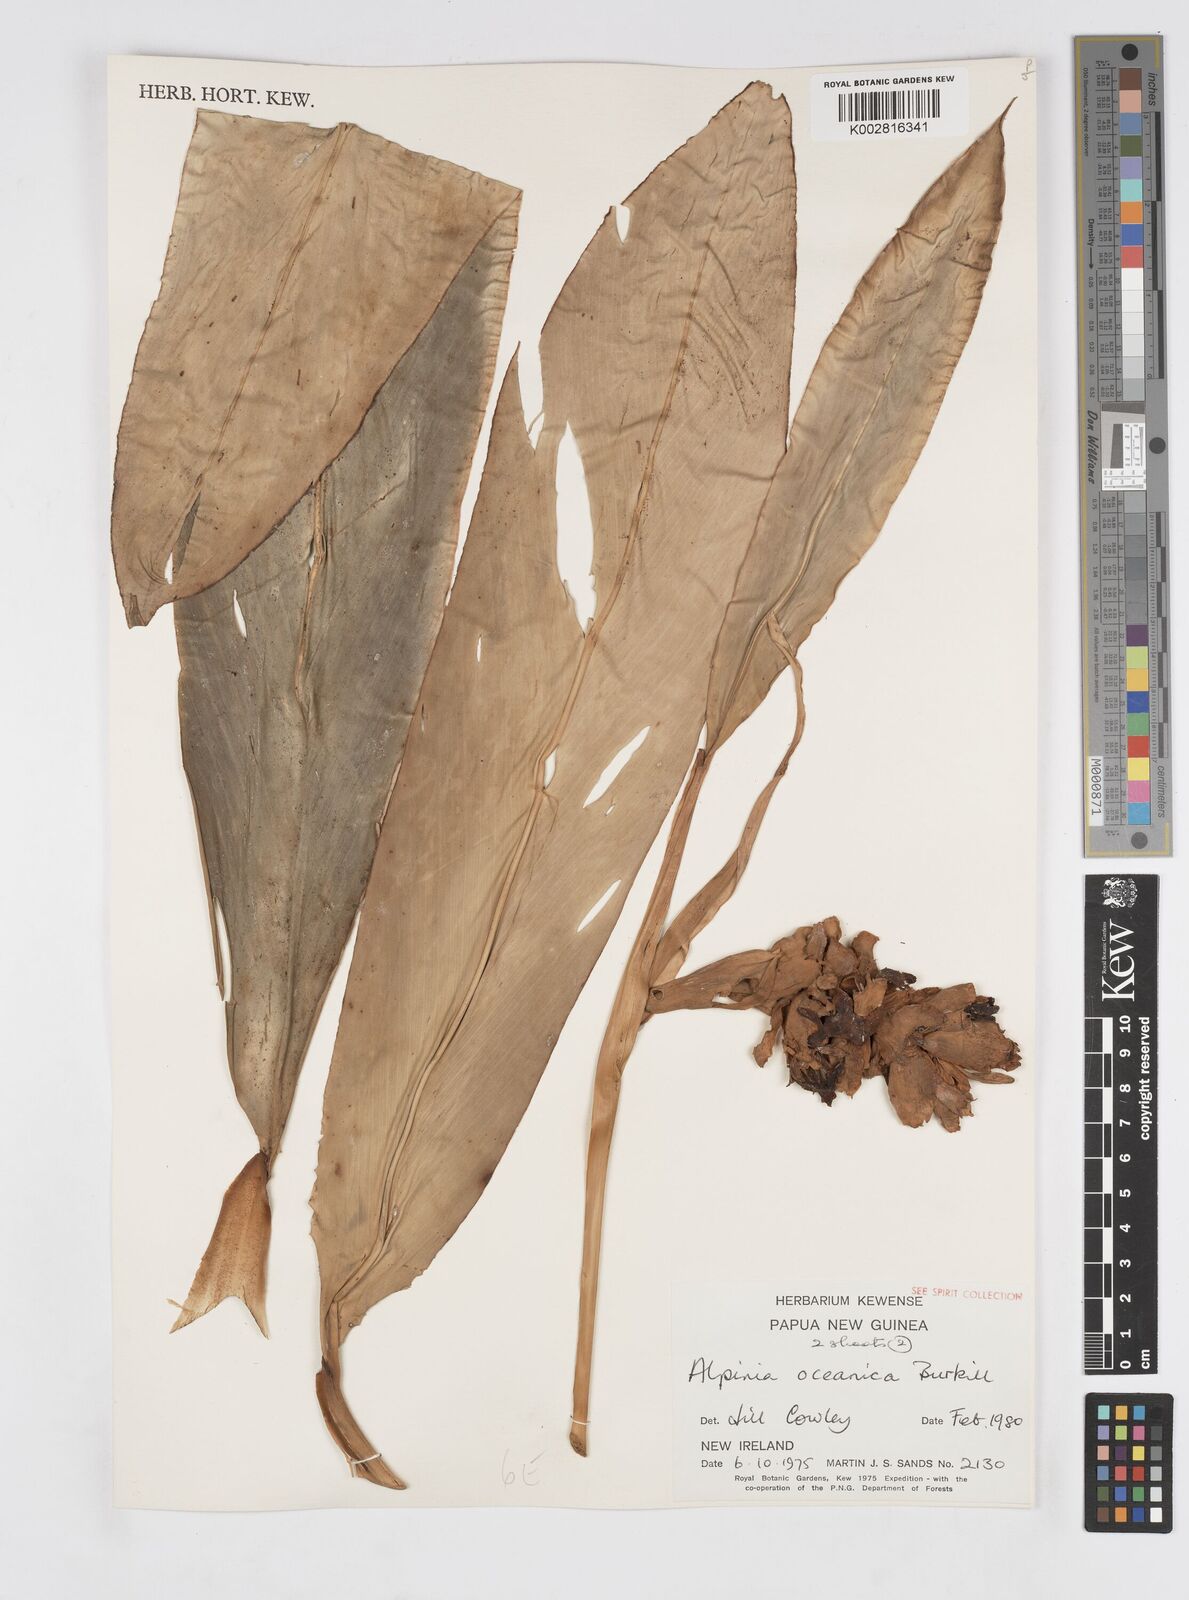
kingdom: Plantae
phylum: Tracheophyta
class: Liliopsida
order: Zingiberales
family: Zingiberaceae
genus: Alpinia
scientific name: Alpinia oceanica
